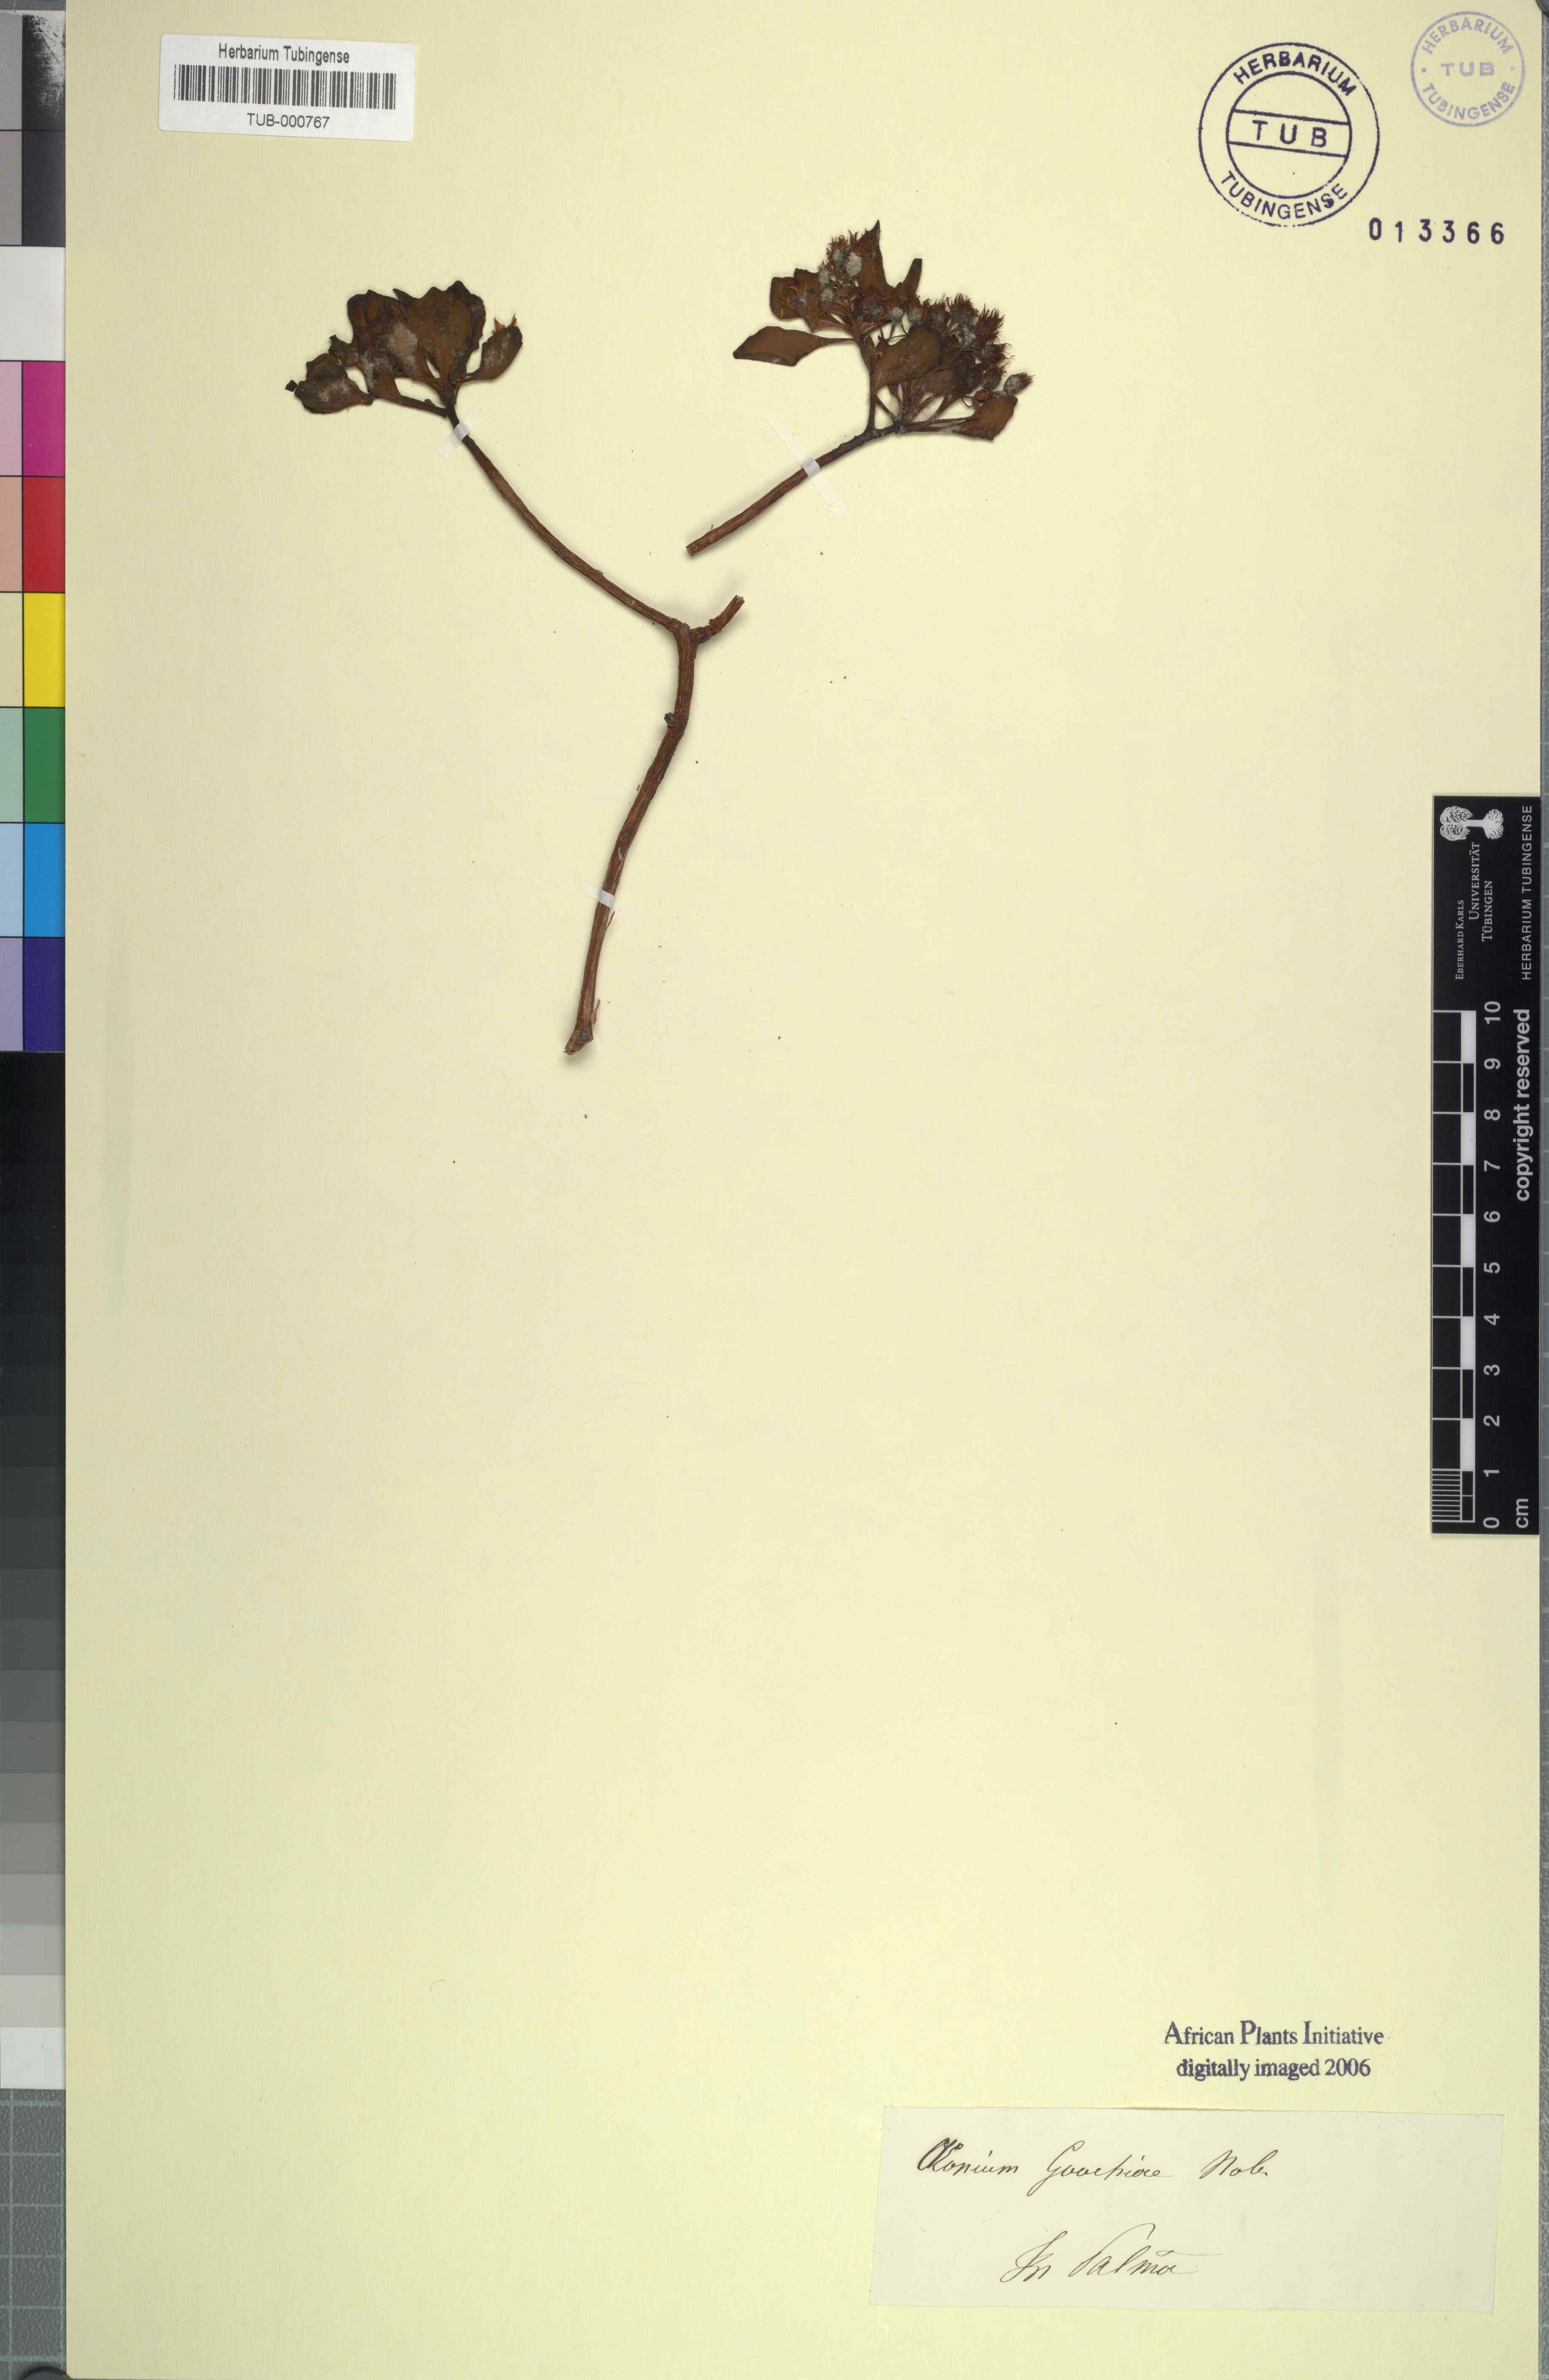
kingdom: Plantae
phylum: Tracheophyta
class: Magnoliopsida
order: Saxifragales
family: Crassulaceae
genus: Aeonium
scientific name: Aeonium goochiae
